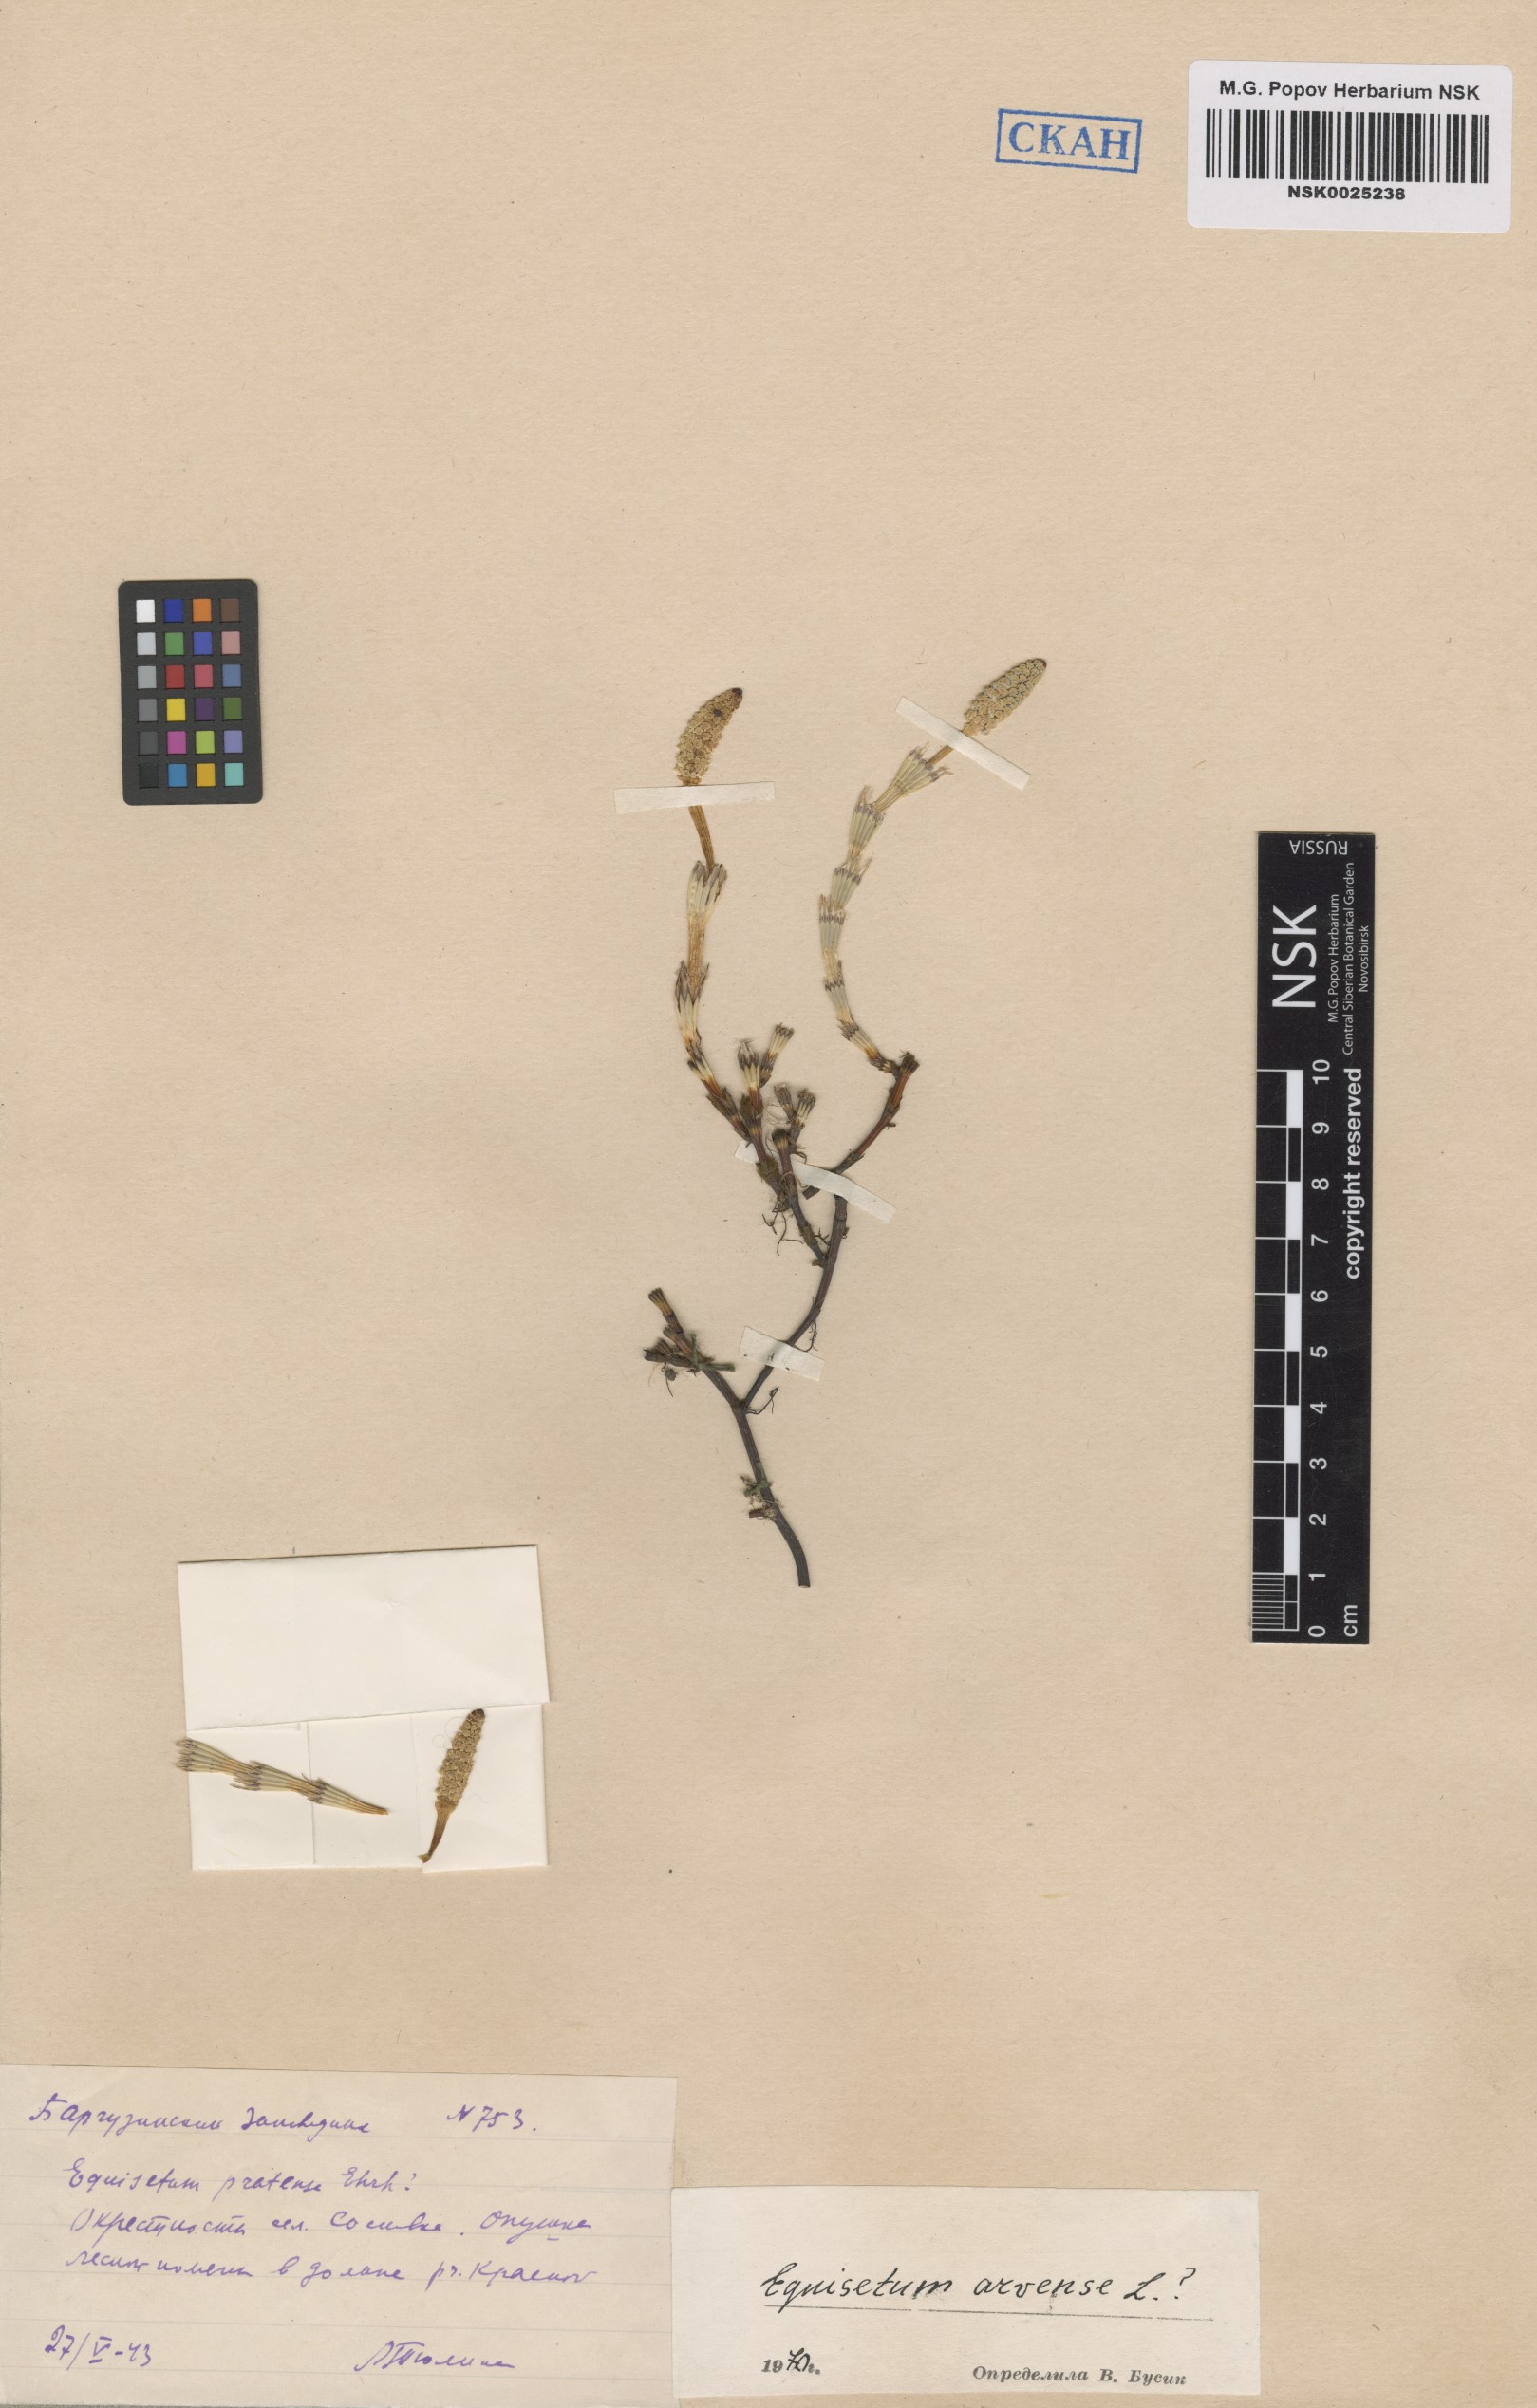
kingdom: Plantae
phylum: Tracheophyta
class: Polypodiopsida
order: Equisetales
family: Equisetaceae
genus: Equisetum
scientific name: Equisetum arvense
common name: Field horsetail
